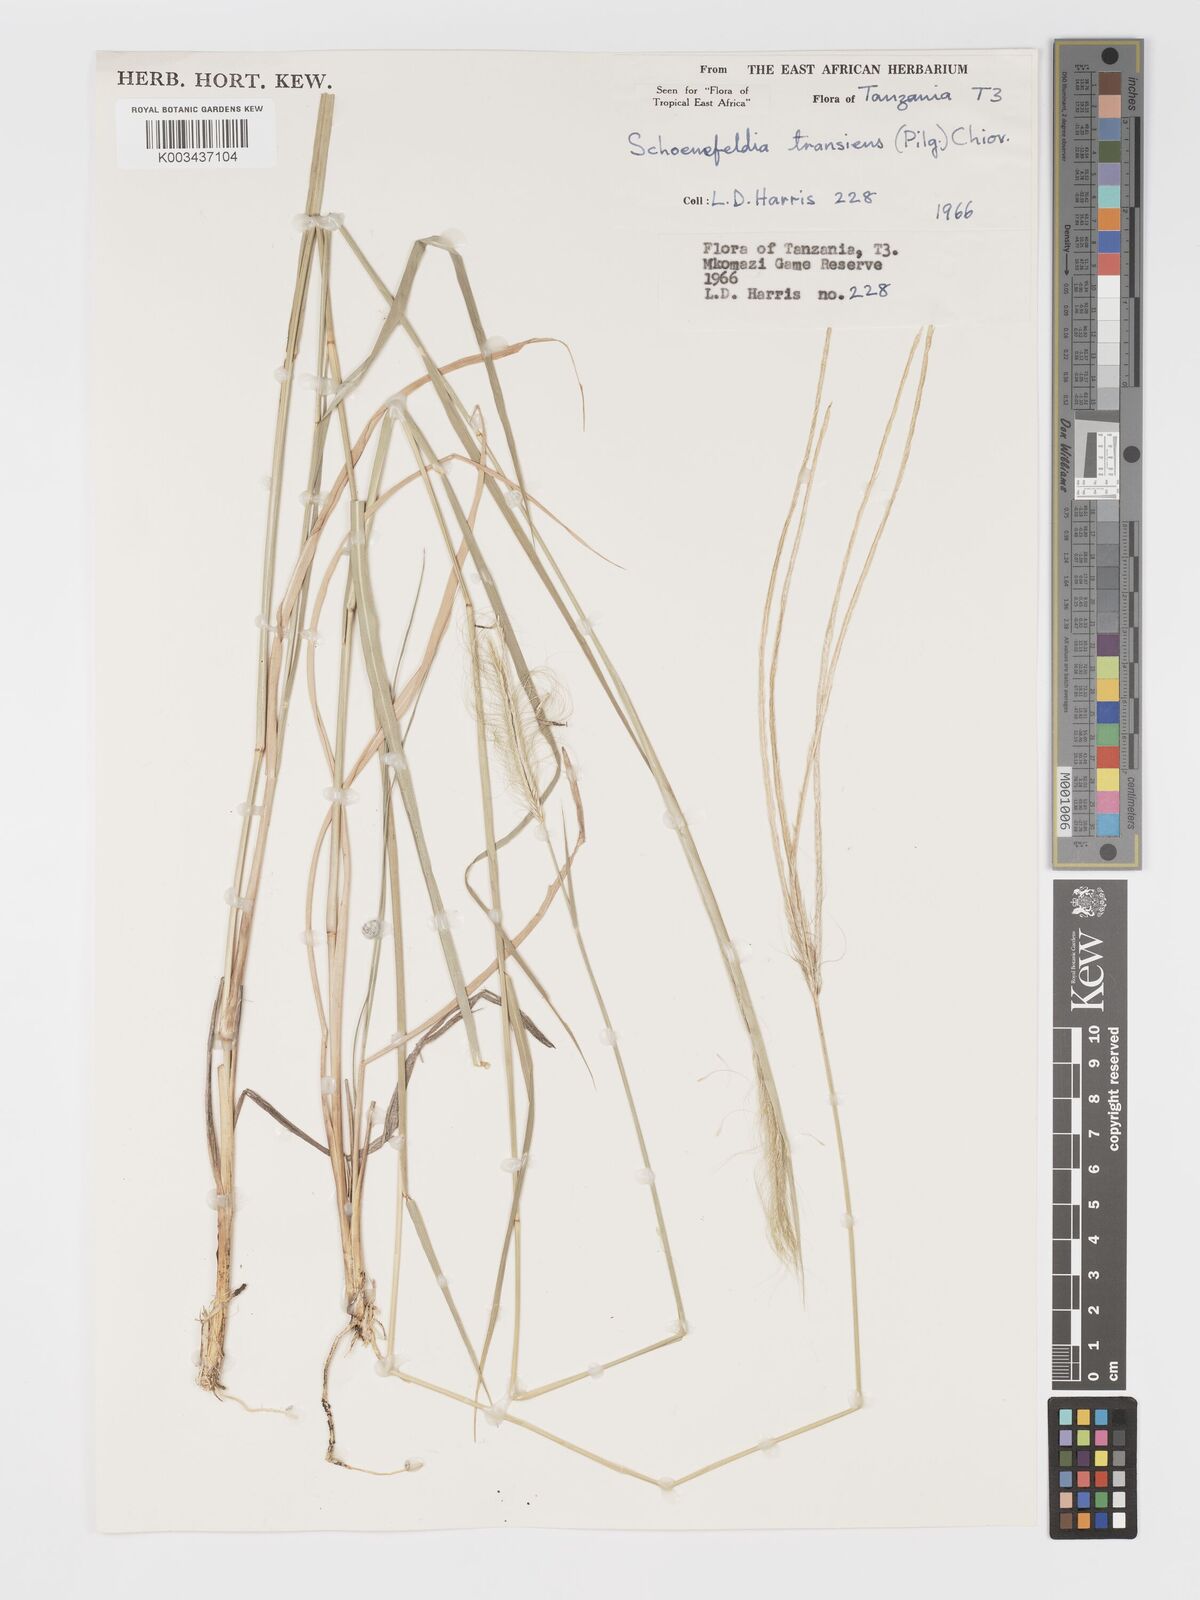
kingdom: Plantae
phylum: Tracheophyta
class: Liliopsida
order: Poales
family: Poaceae
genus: Schoenefeldia
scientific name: Schoenefeldia transiens
